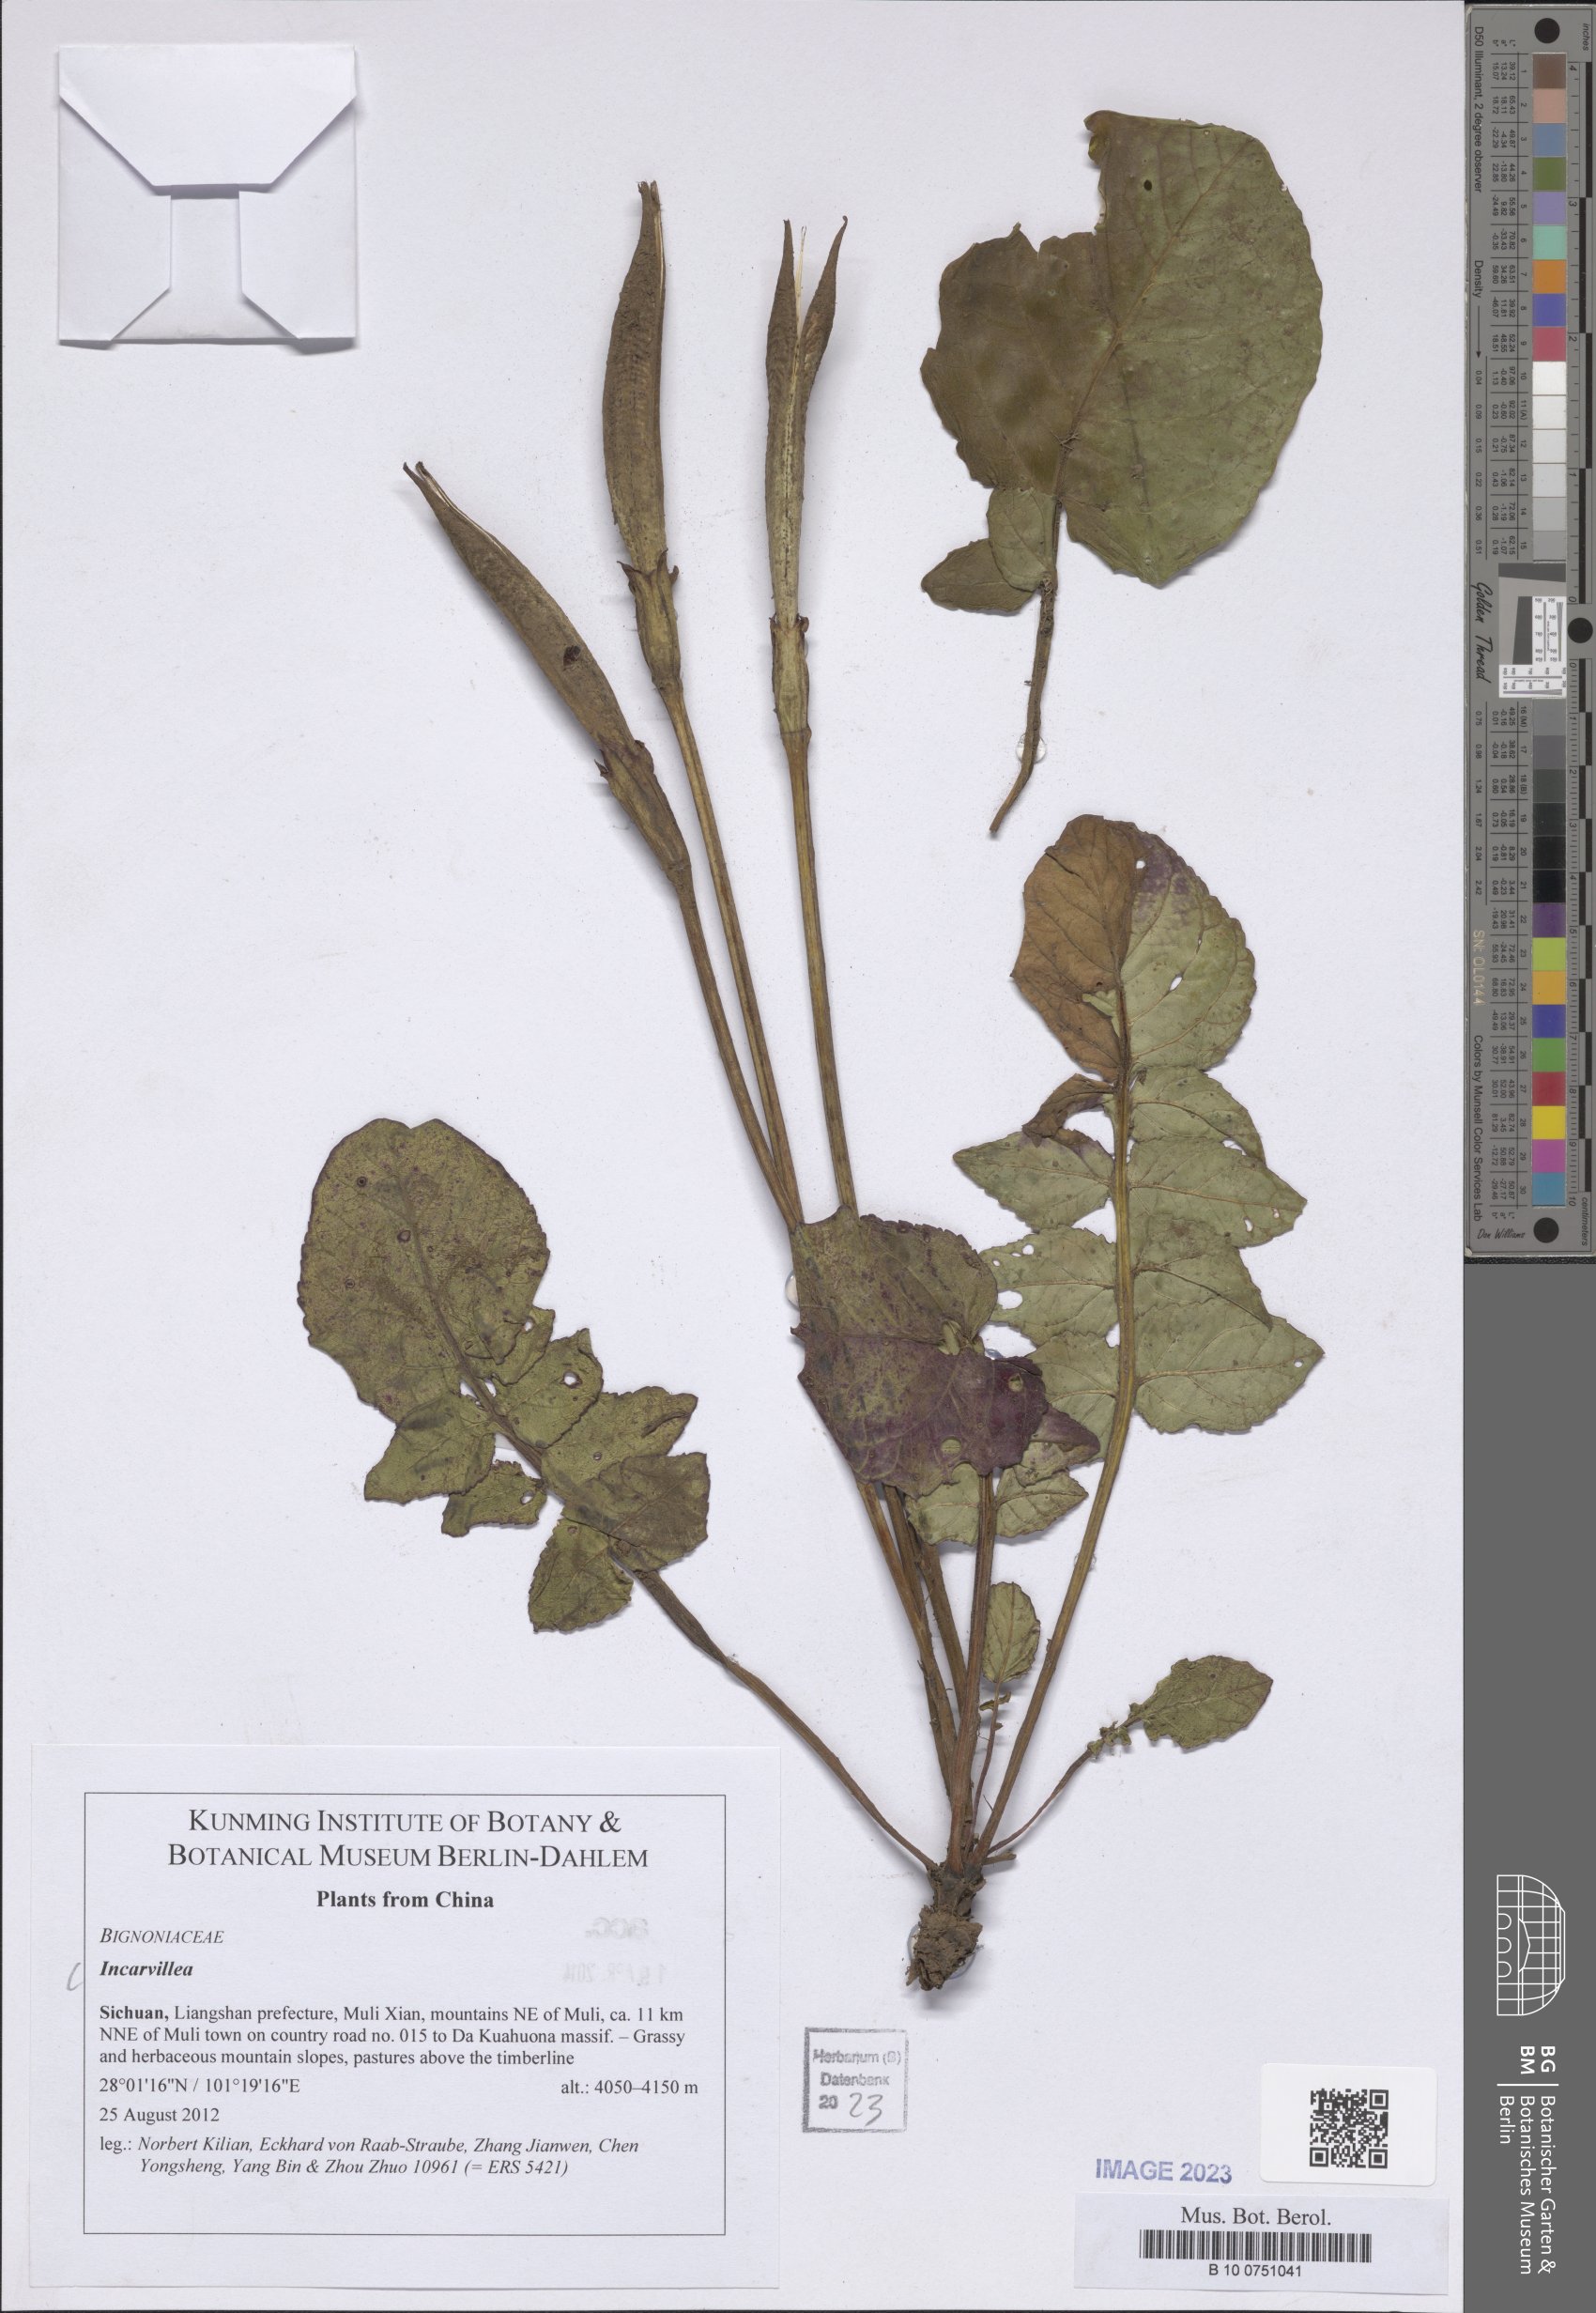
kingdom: Plantae
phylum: Tracheophyta
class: Magnoliopsida
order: Lamiales
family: Bignoniaceae
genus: Incarvillea
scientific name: Incarvillea
